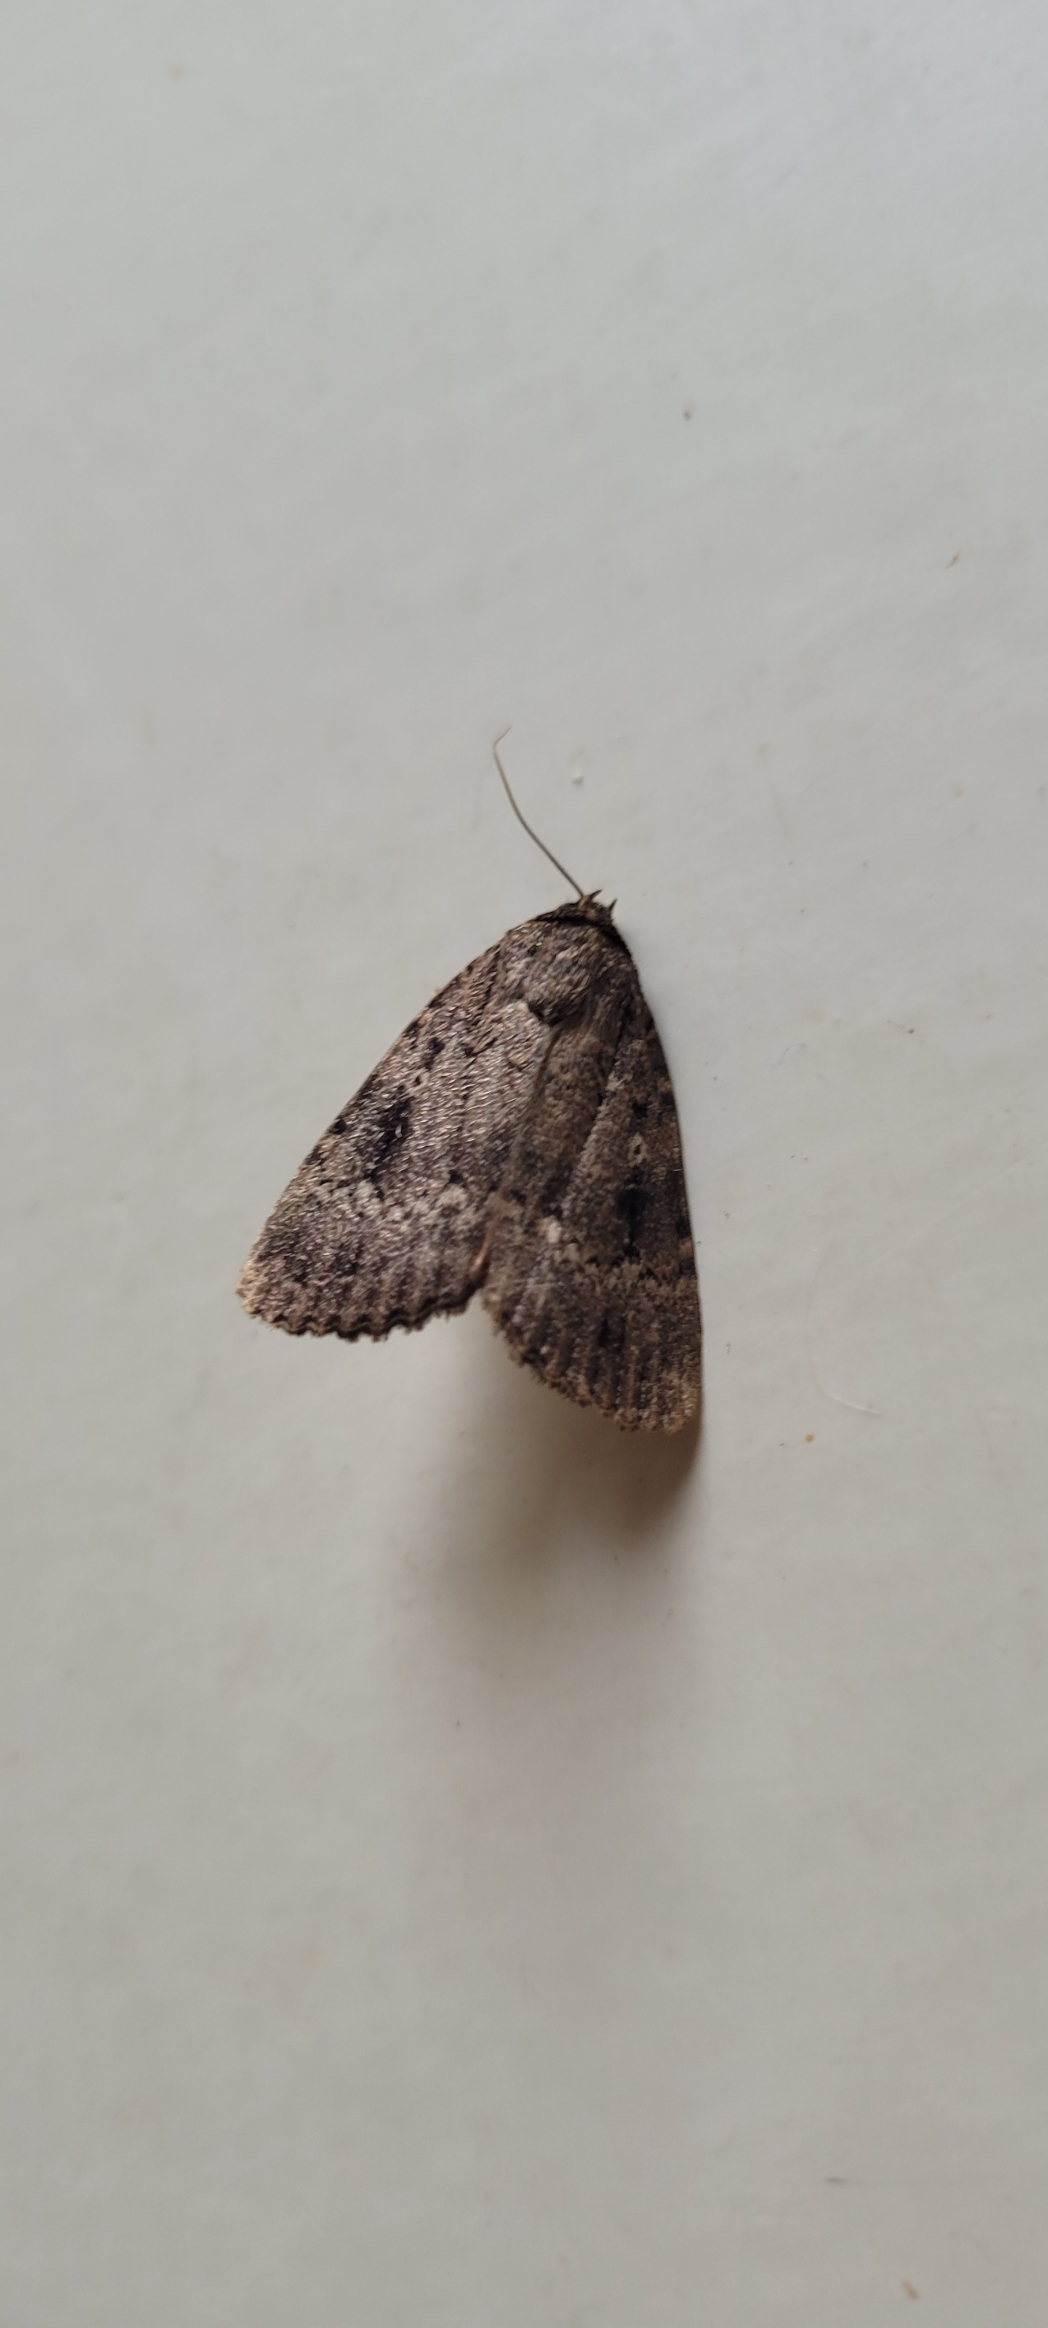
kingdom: Animalia
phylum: Arthropoda
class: Insecta
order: Lepidoptera
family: Noctuidae
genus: Amphipyra
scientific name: Amphipyra pyramidea
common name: Pyramideugle
